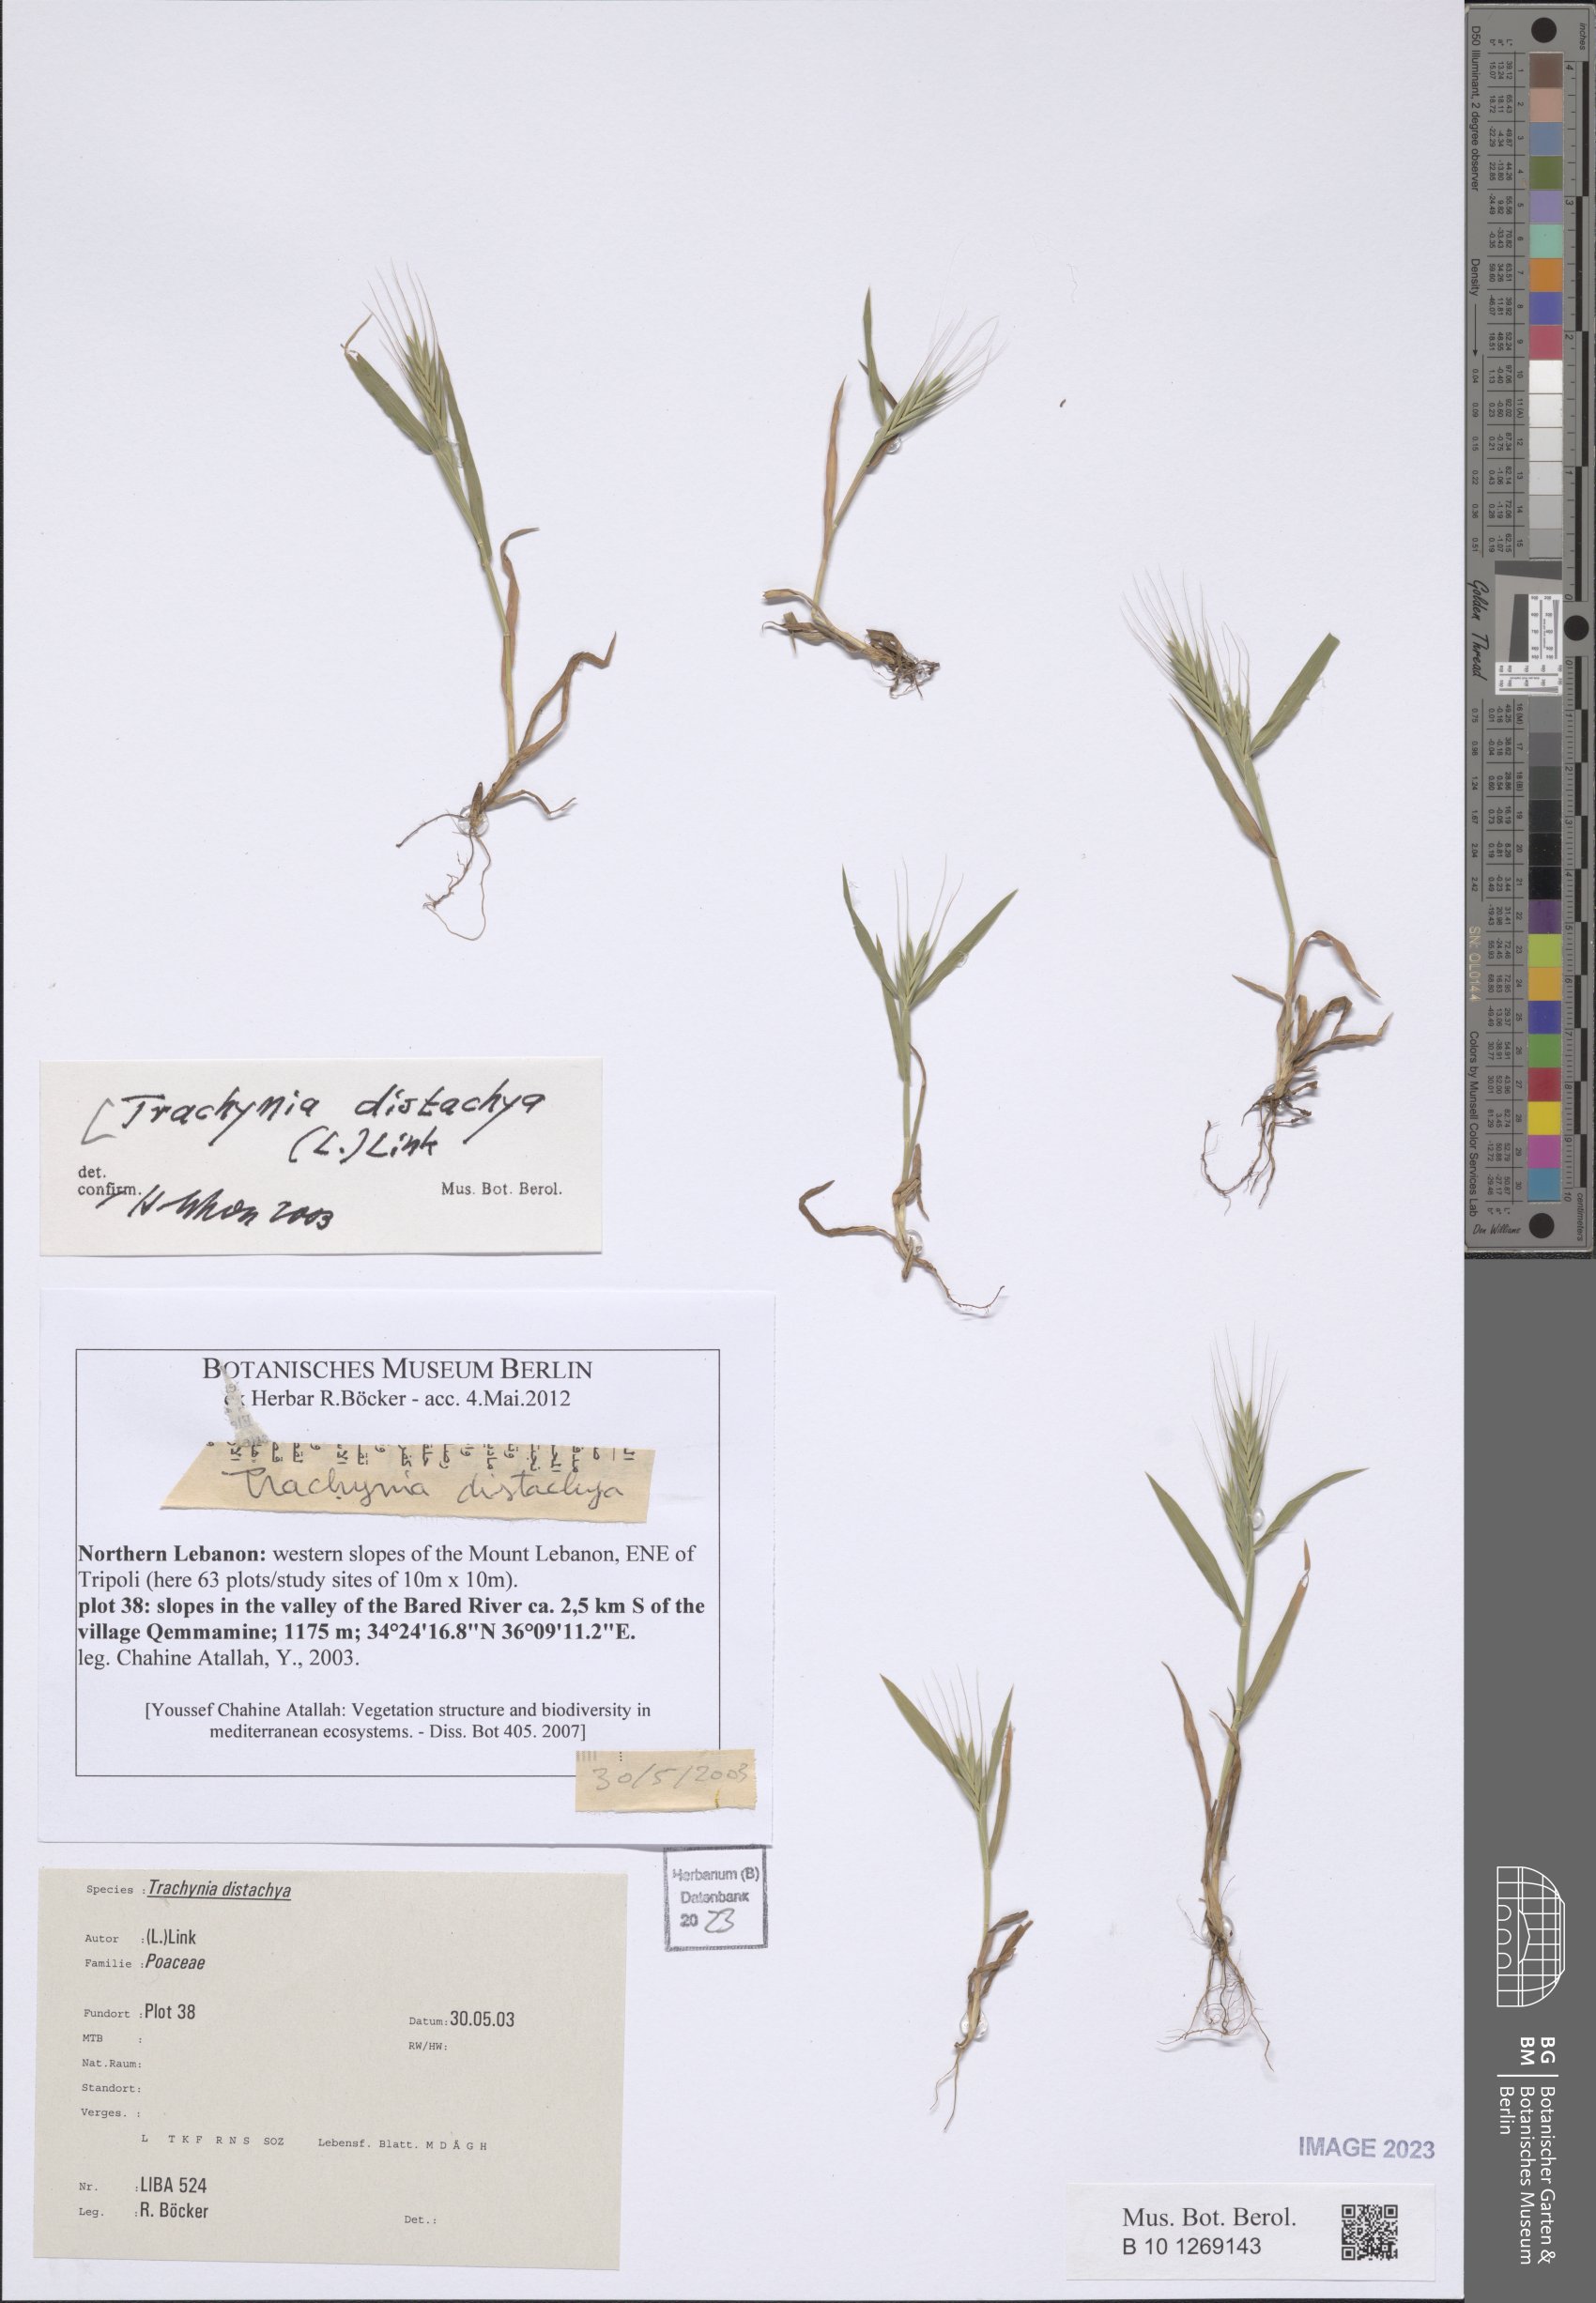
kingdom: Plantae
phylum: Tracheophyta
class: Liliopsida
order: Poales
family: Poaceae
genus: Brachypodium
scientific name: Brachypodium distachyon
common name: Stiff brome
